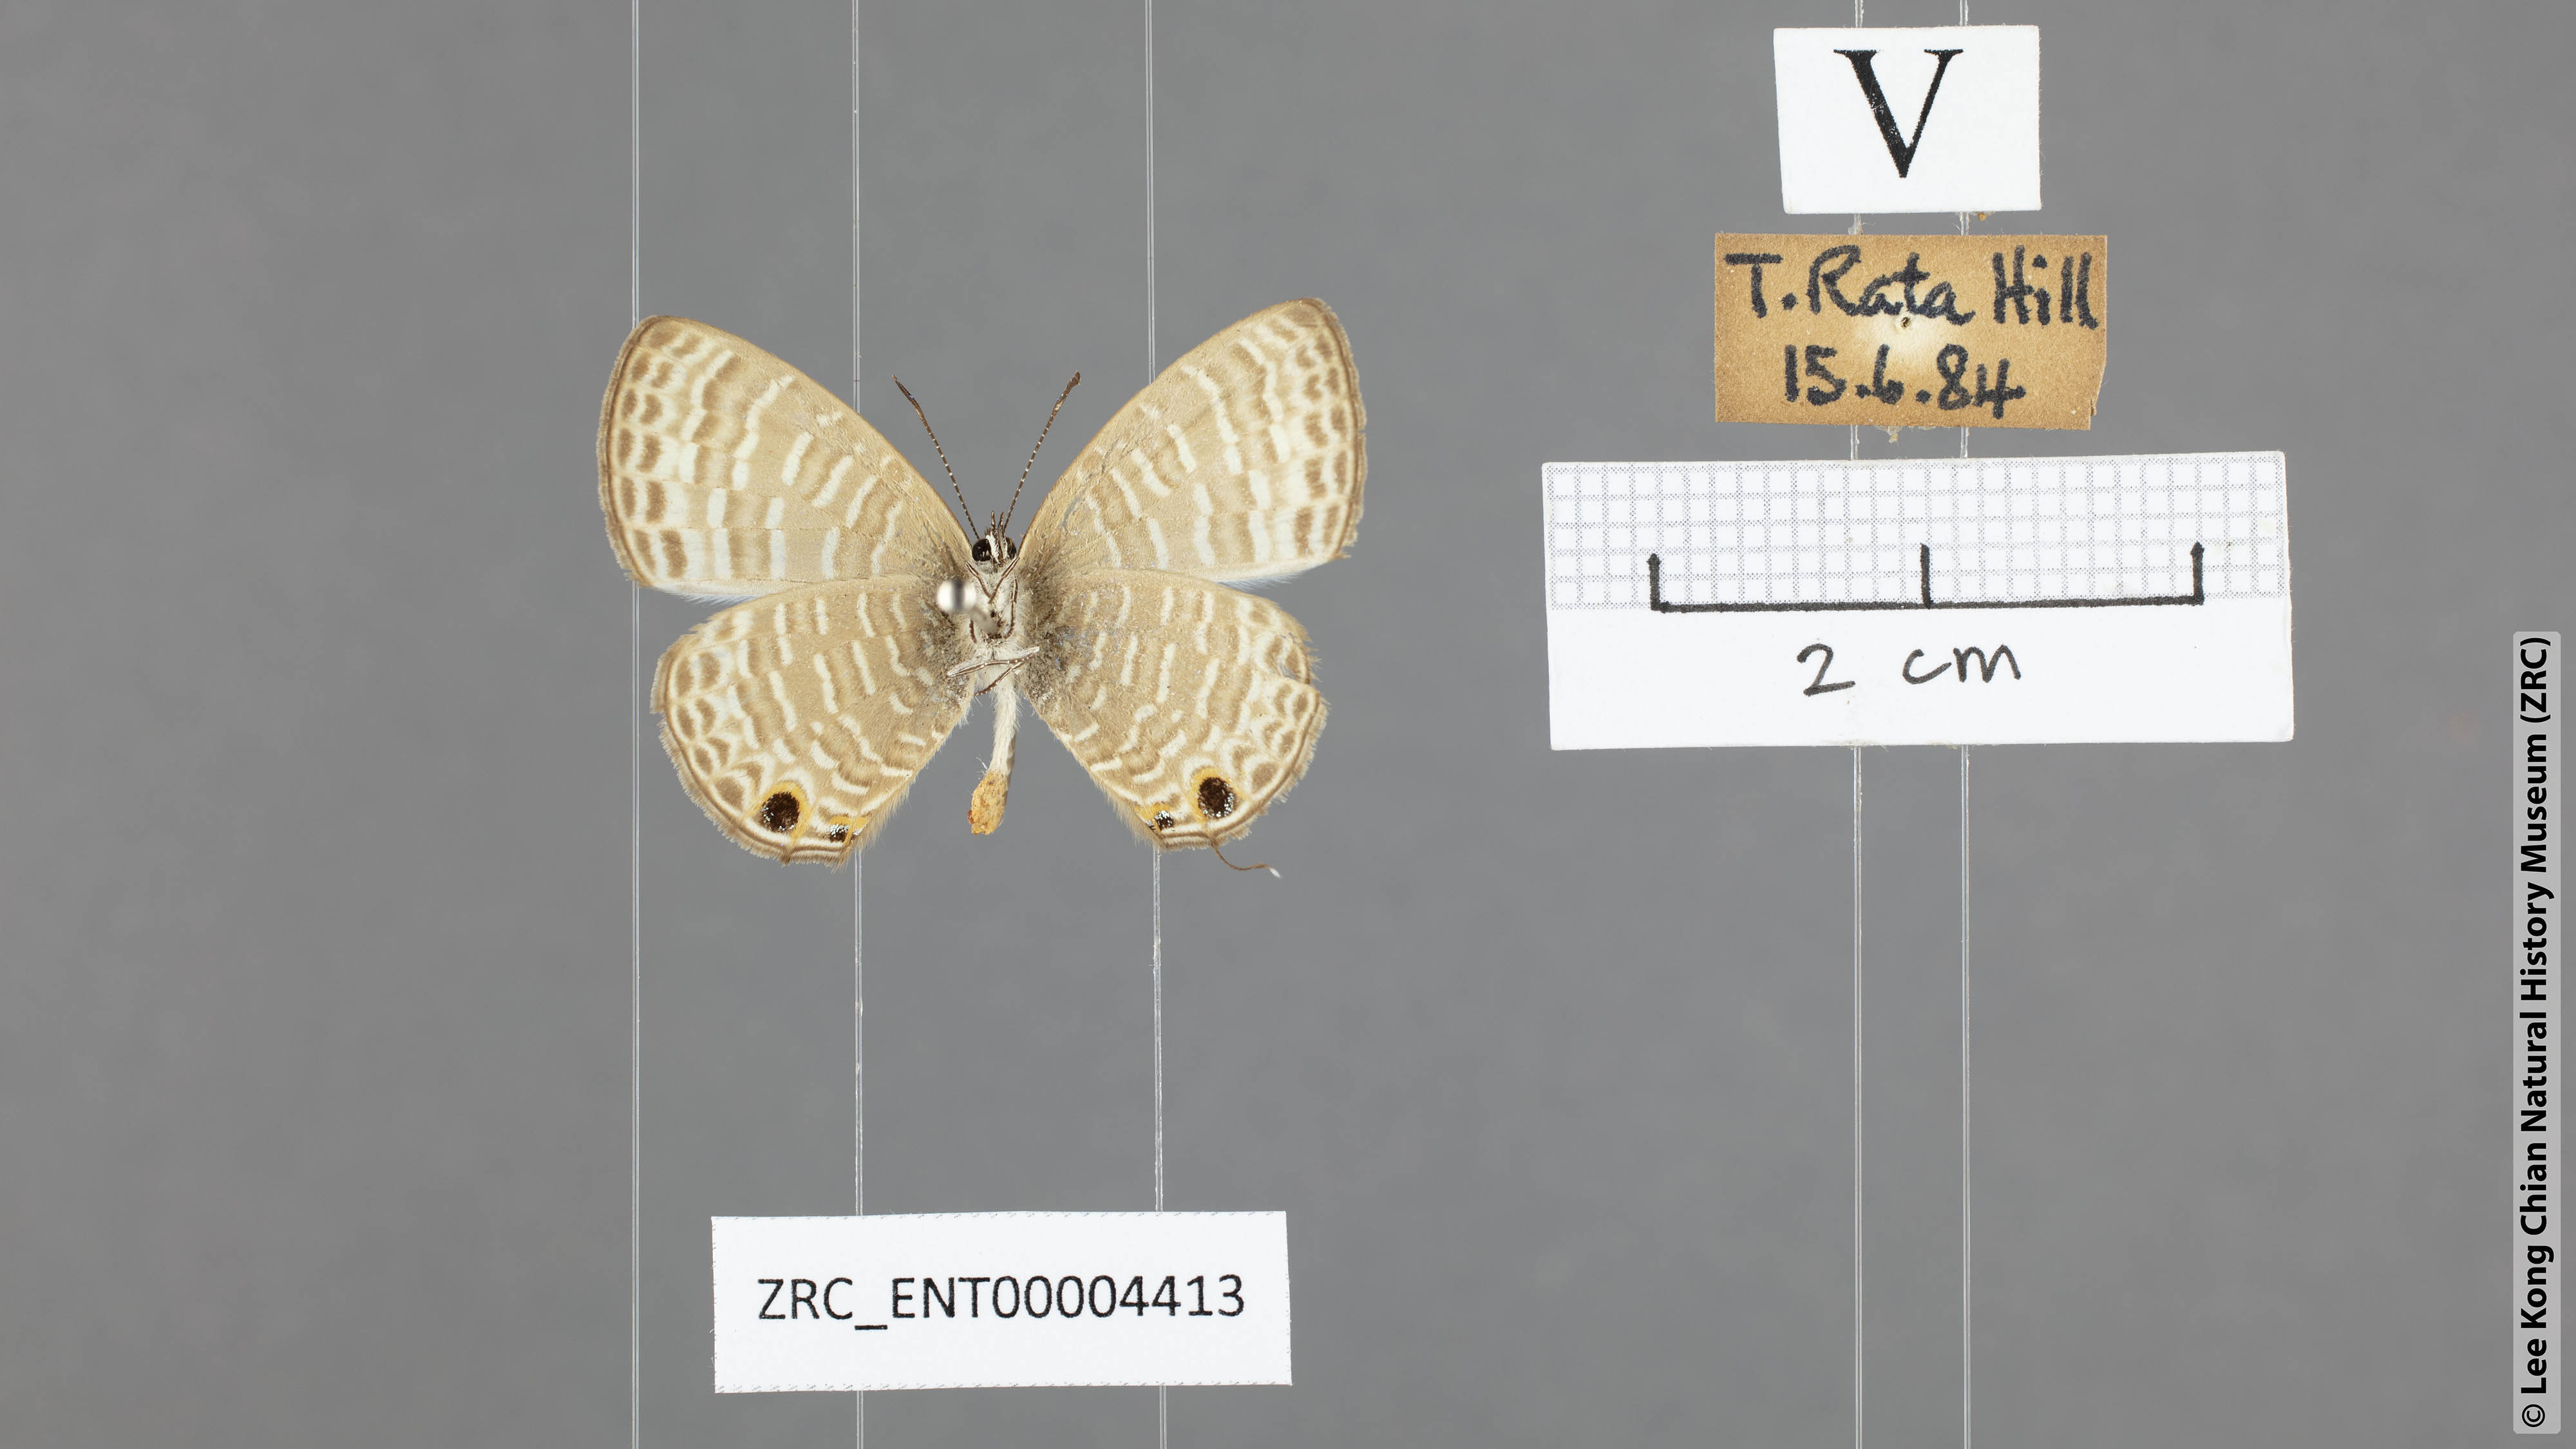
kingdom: Animalia
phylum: Arthropoda
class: Insecta
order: Lepidoptera
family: Lycaenidae
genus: Nacaduba
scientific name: Nacaduba sanaya
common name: Jewel fourline blue
